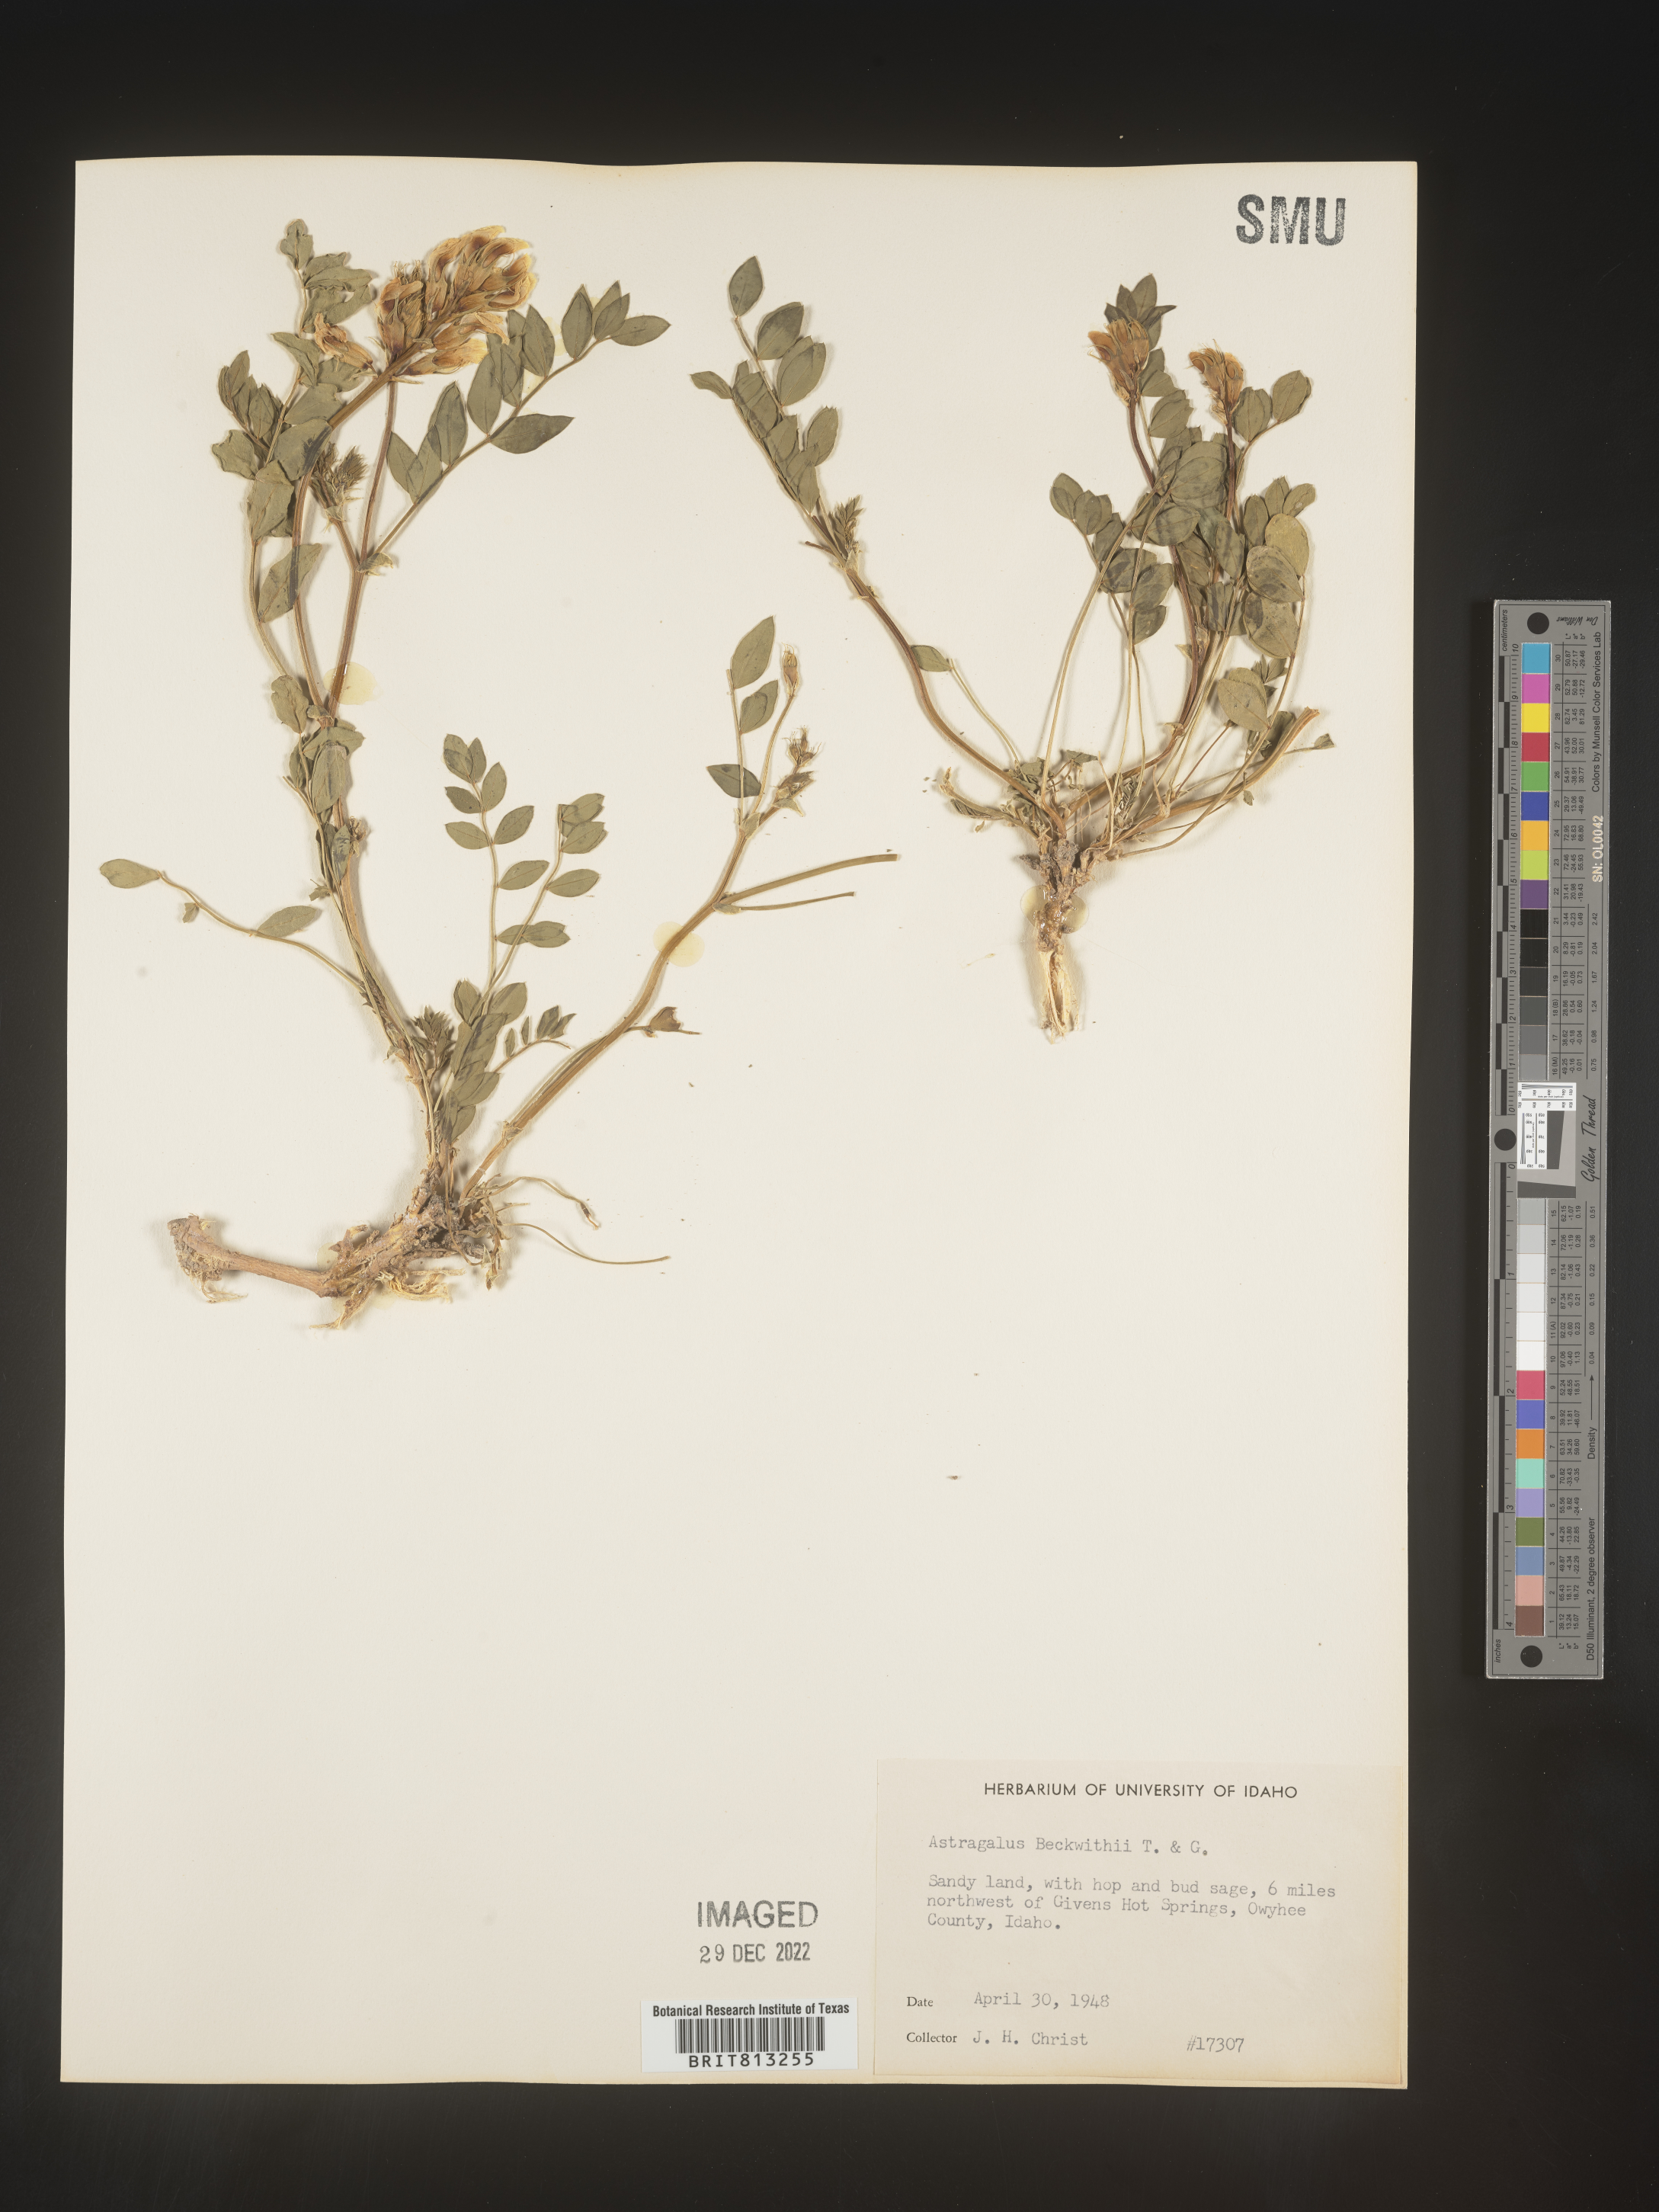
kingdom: Plantae
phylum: Tracheophyta
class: Magnoliopsida
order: Fabales
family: Fabaceae
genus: Astragalus
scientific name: Astragalus
